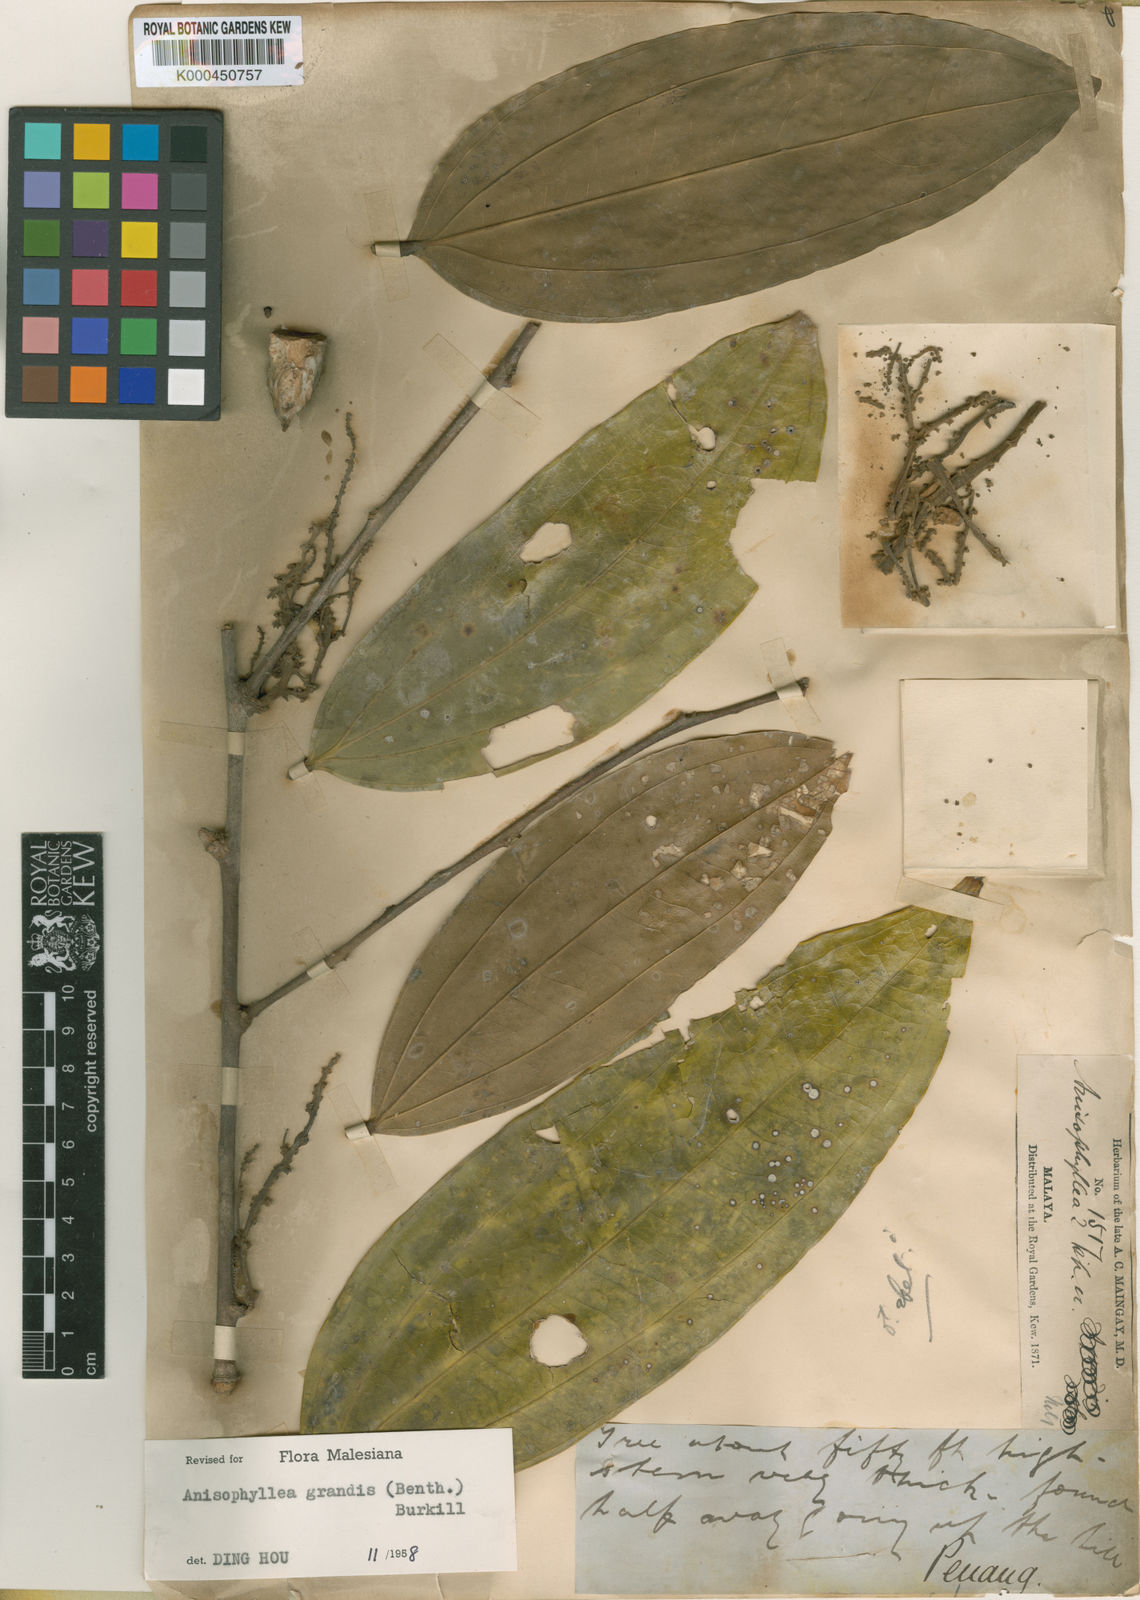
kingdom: Plantae
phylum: Tracheophyta
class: Magnoliopsida
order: Cucurbitales
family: Anisophylleaceae
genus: Anisophyllea
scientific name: Anisophyllea grandis
